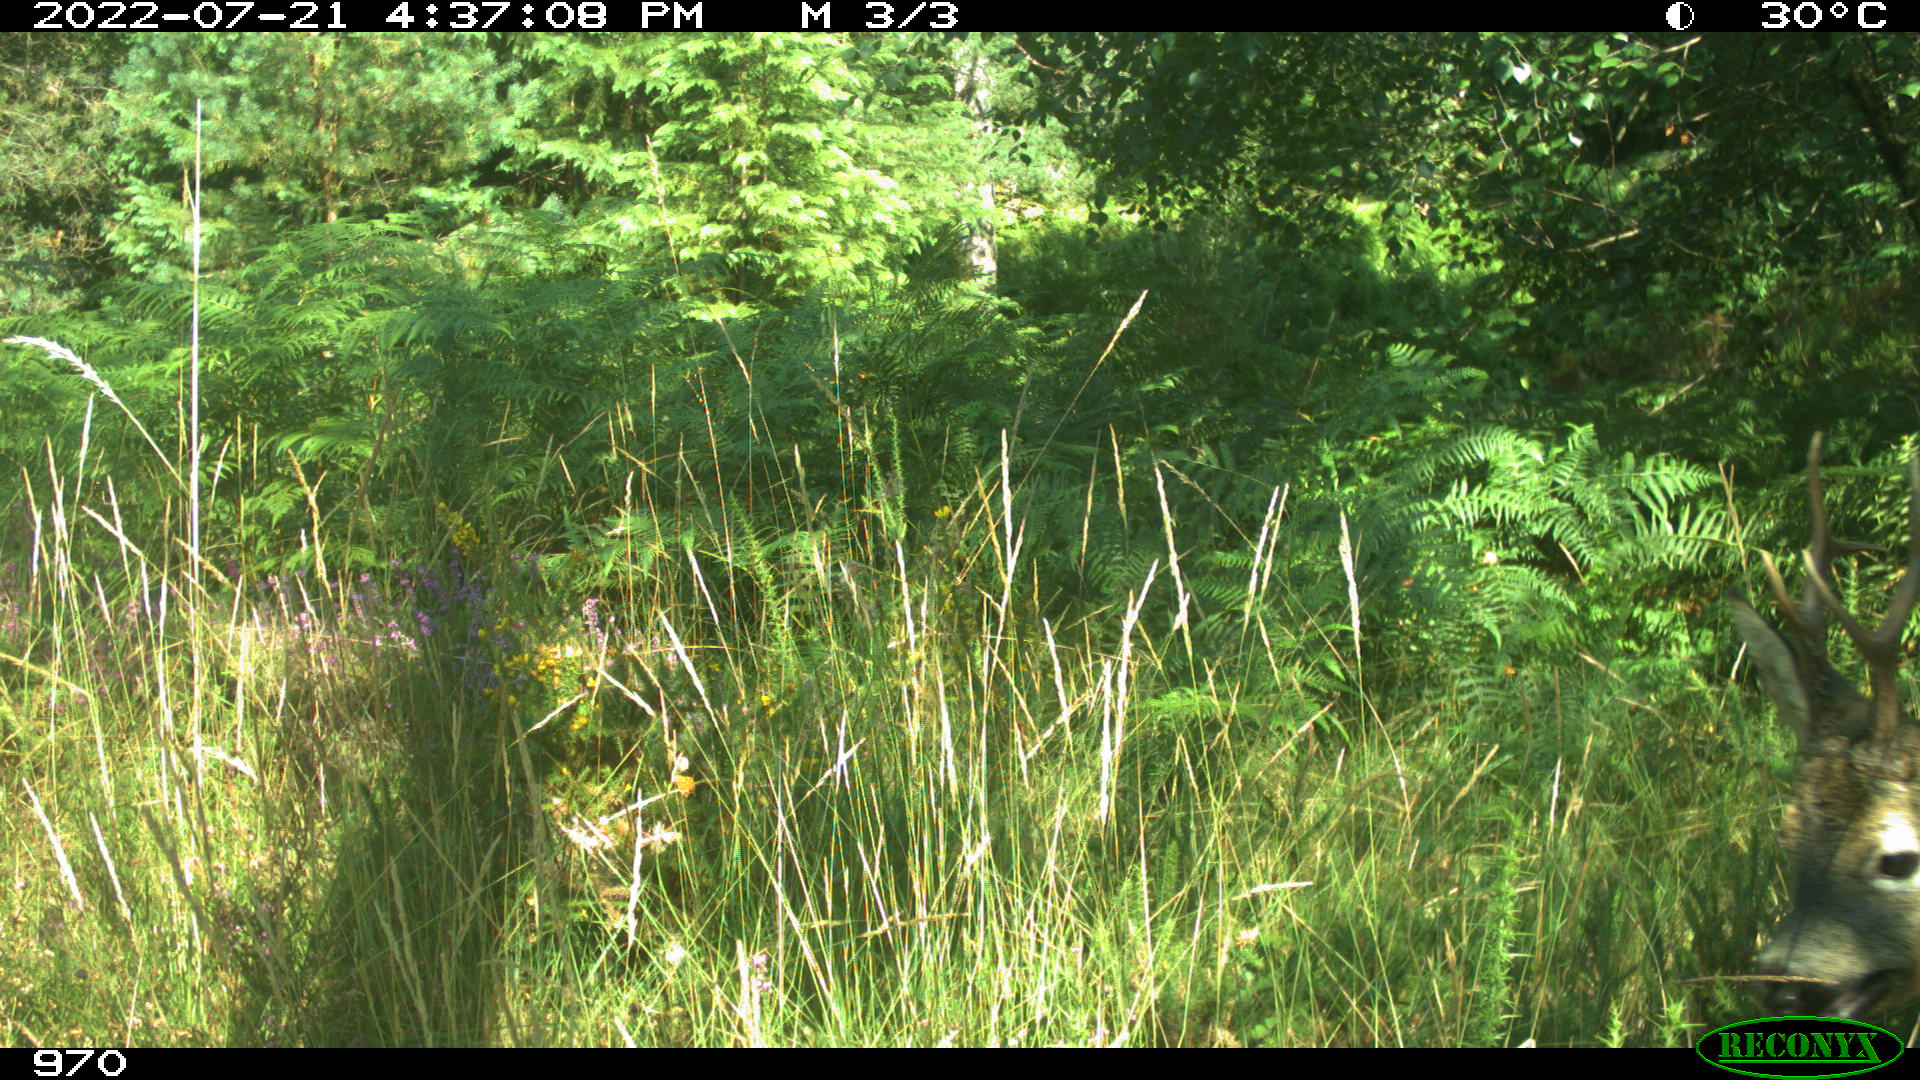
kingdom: Animalia
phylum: Chordata
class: Mammalia
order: Artiodactyla
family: Cervidae
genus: Capreolus
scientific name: Capreolus capreolus
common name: Western roe deer
